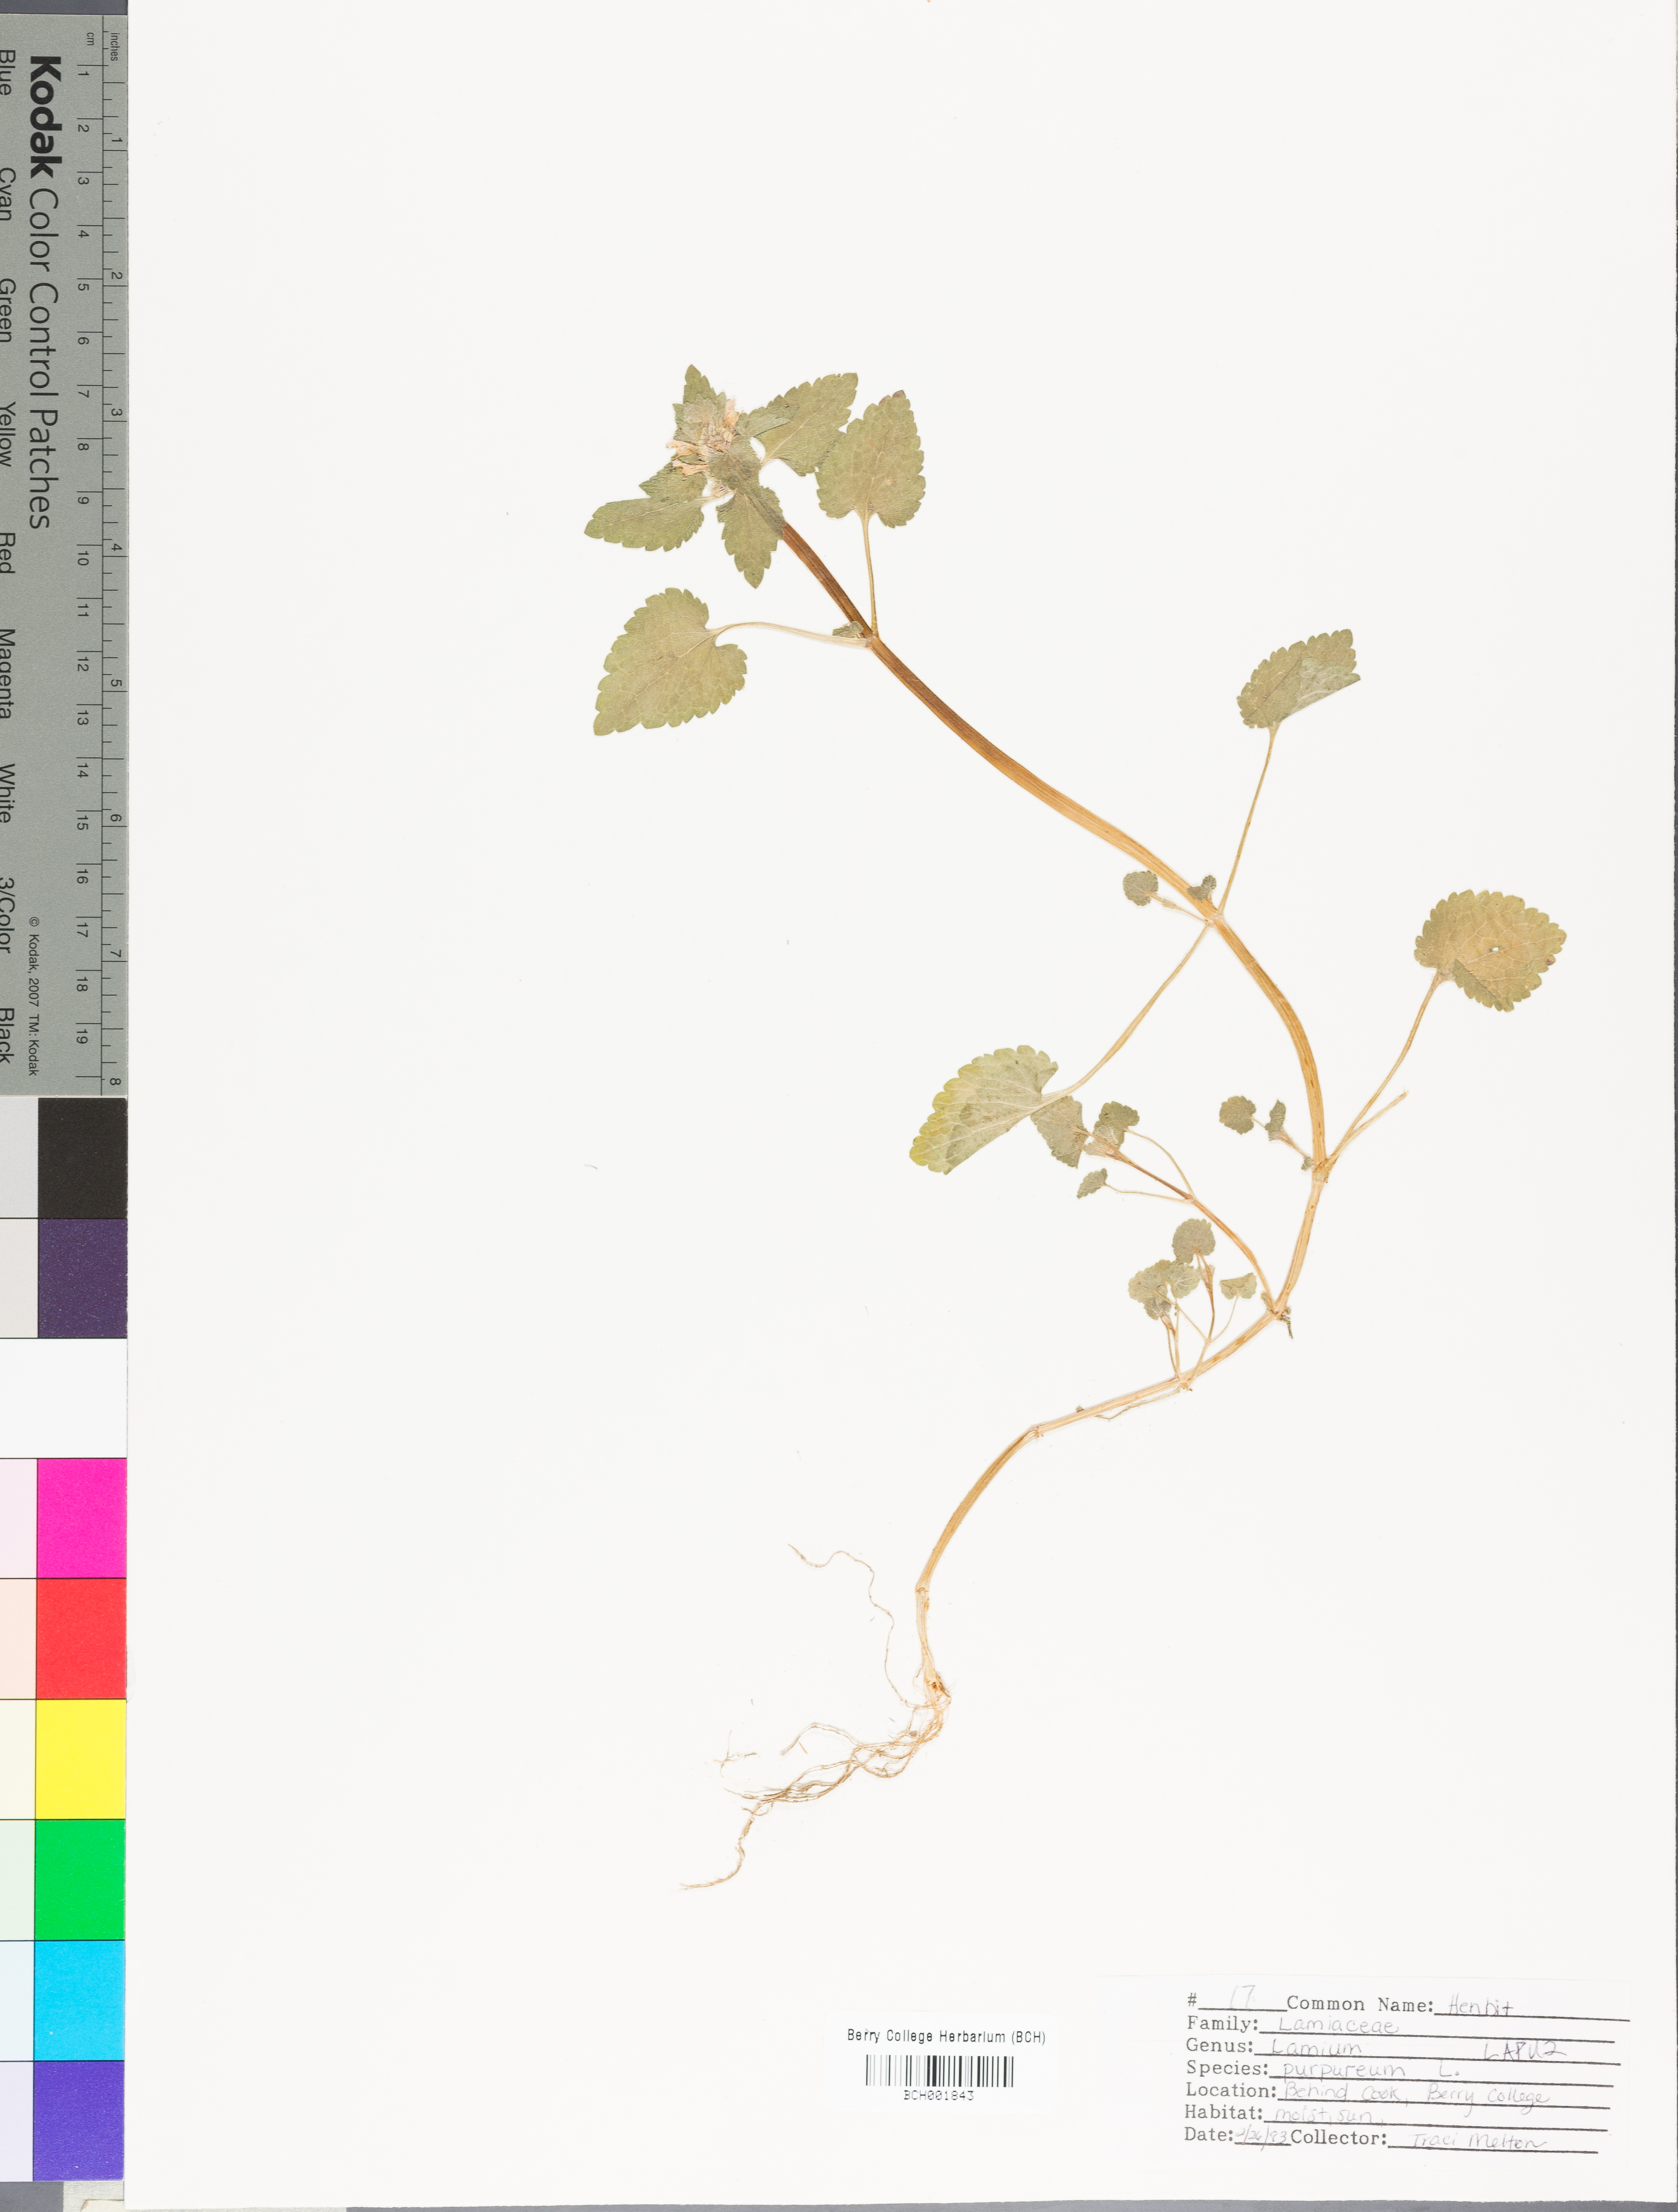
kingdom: Plantae
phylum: Tracheophyta
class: Magnoliopsida
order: Lamiales
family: Lamiaceae
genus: Lamium
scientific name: Lamium purpureum
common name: Red dead-nettle
